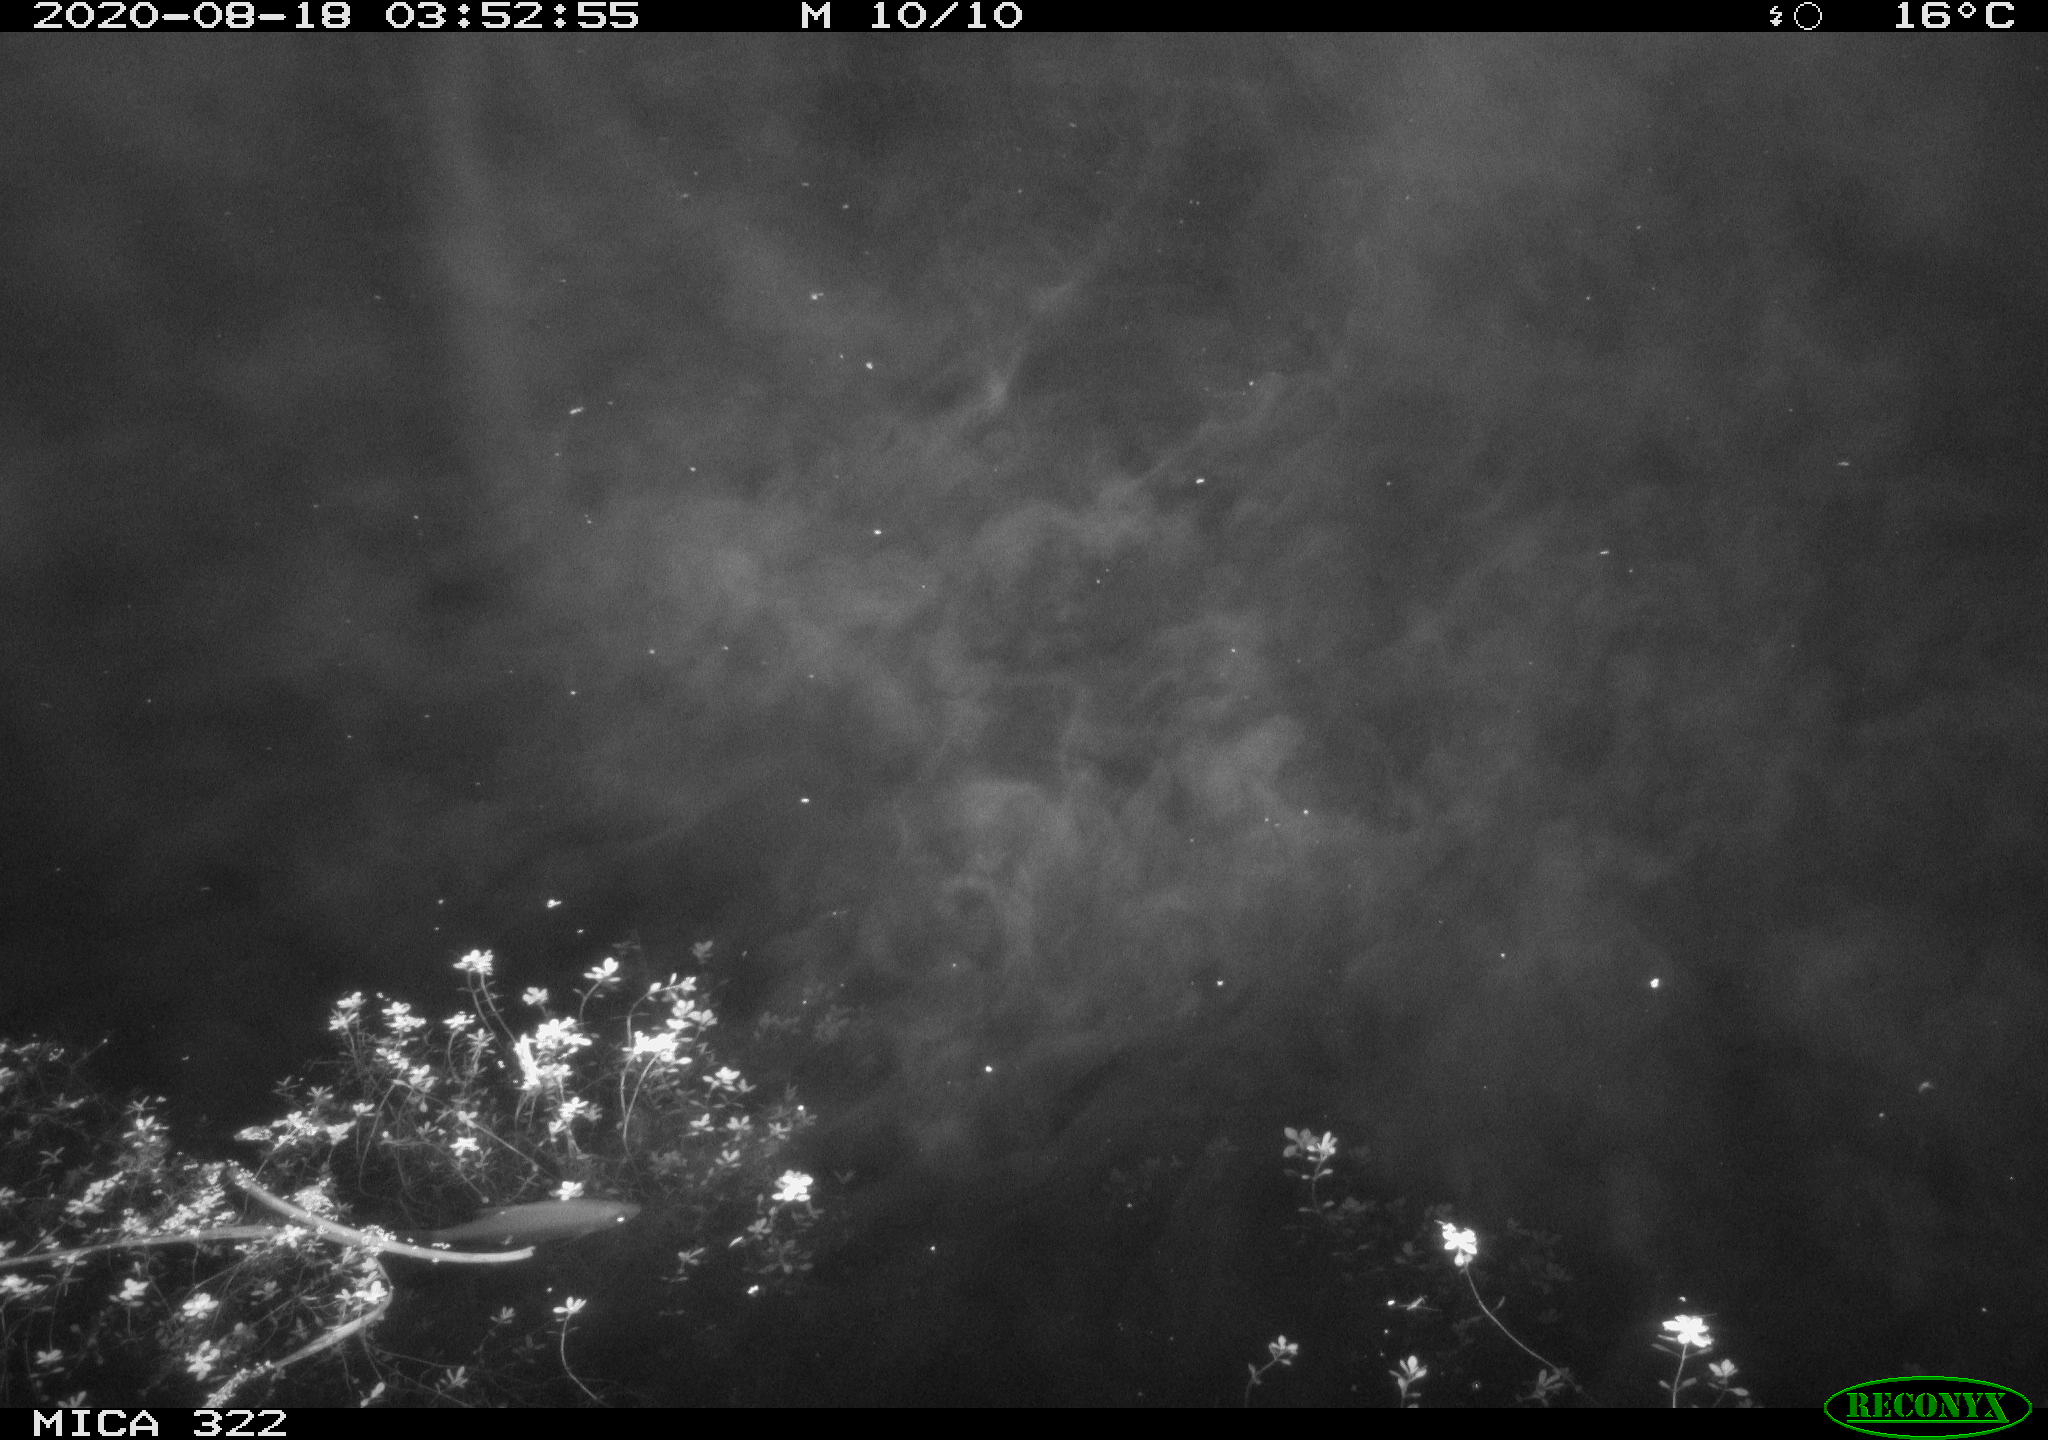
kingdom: Animalia
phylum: Chordata
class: Aves
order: Anseriformes
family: Anatidae
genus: Anas
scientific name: Anas platyrhynchos
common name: Mallard
